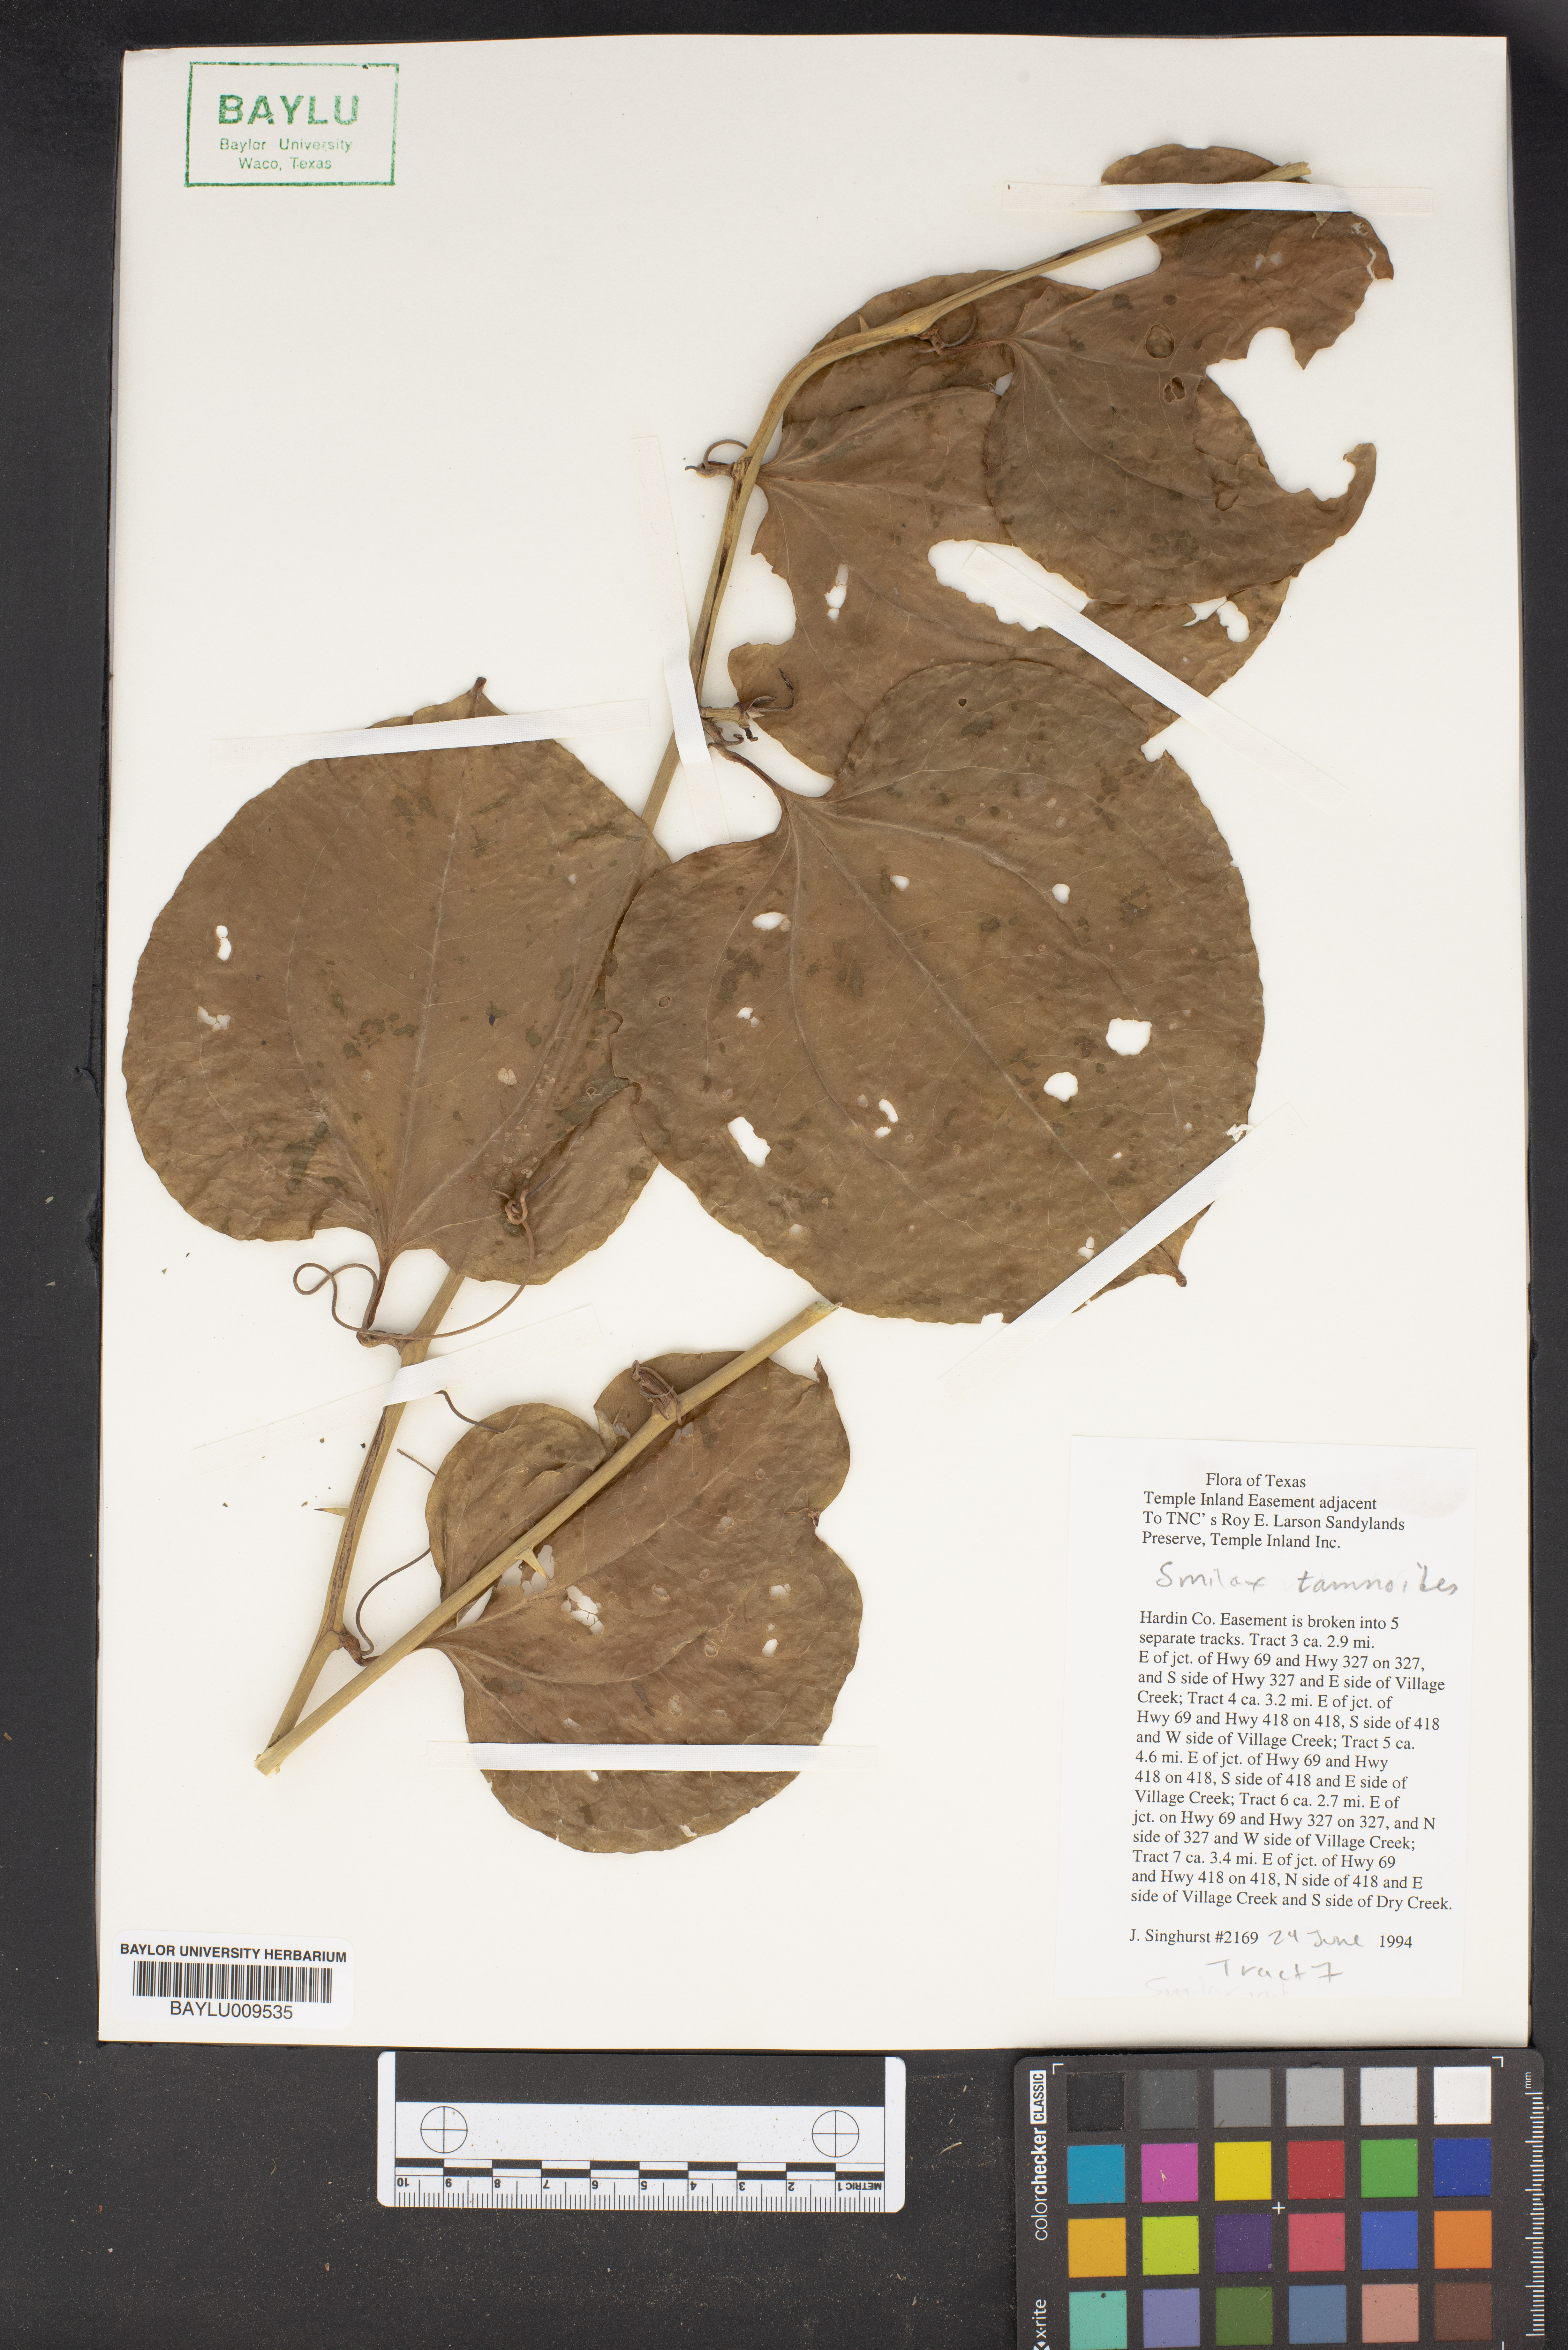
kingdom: Plantae
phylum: Tracheophyta
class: Liliopsida
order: Liliales
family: Smilacaceae
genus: Smilax
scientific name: Smilax tamnoides
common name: Hellfetter
